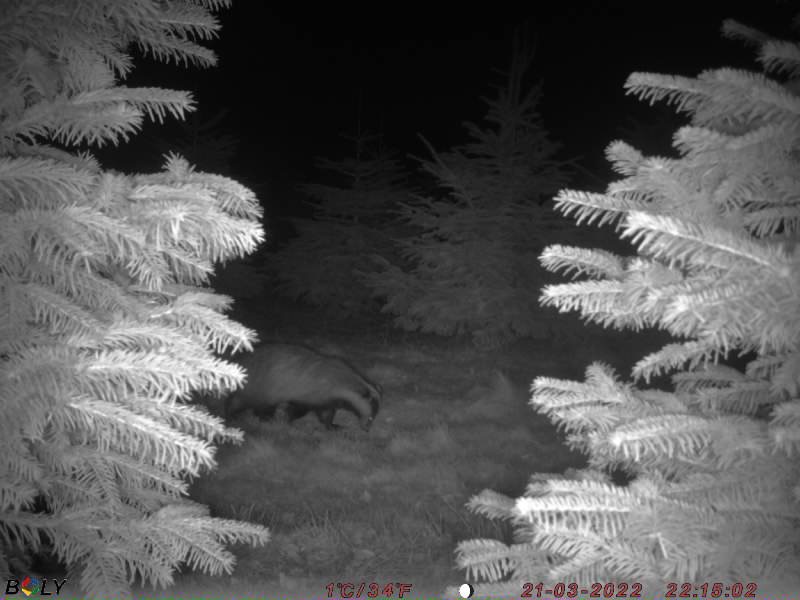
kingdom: Animalia
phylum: Chordata
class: Mammalia
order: Carnivora
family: Mustelidae
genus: Meles
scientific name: Meles meles
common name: Grævling
